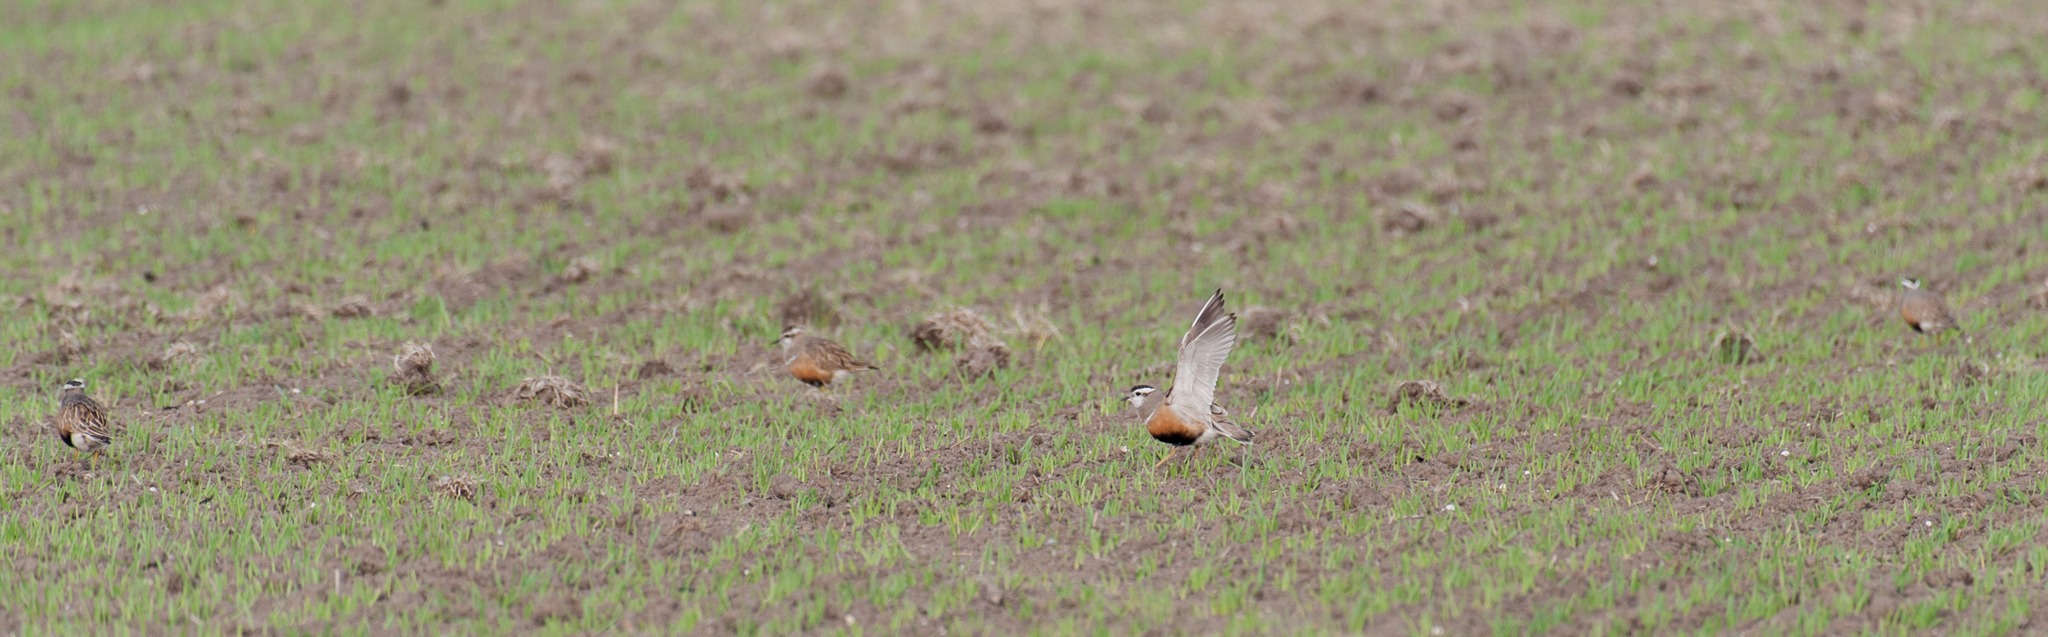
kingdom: Animalia
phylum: Chordata
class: Aves
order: Charadriiformes
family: Charadriidae
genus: Charadrius
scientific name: Charadrius morinellus
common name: Pomeransfugl
